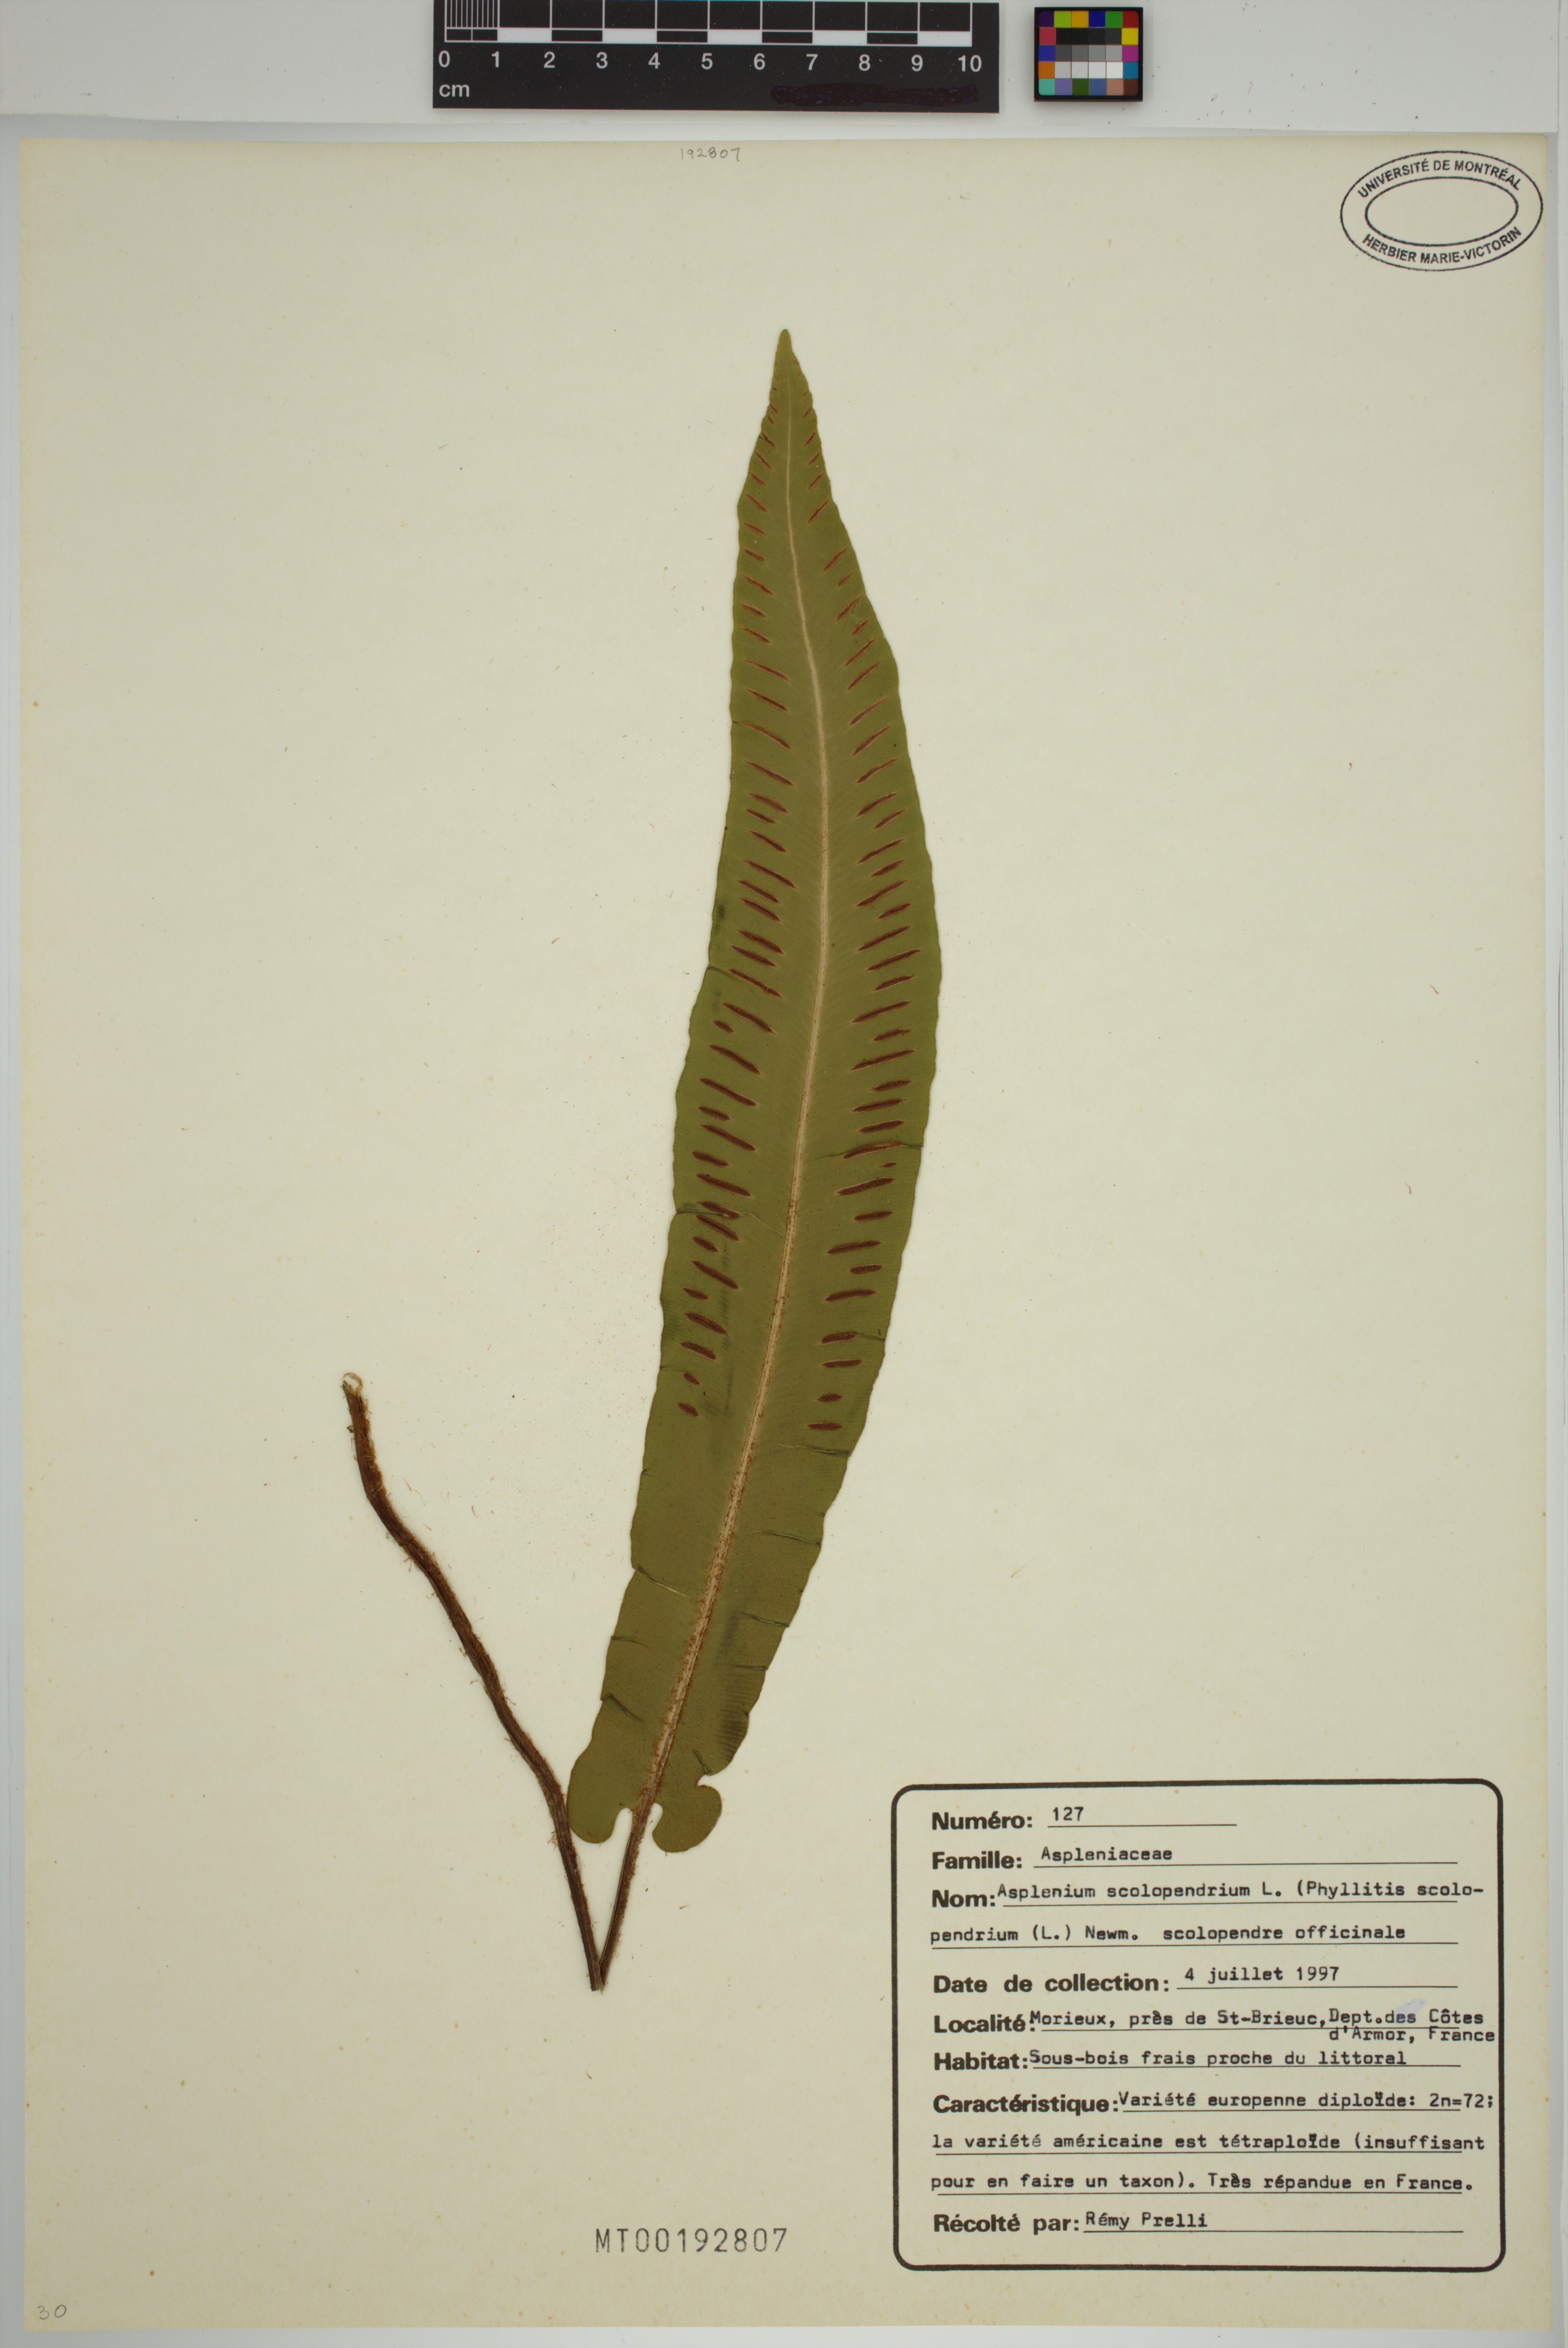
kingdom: Plantae
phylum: Tracheophyta
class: Polypodiopsida
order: Polypodiales
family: Aspleniaceae
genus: Asplenium
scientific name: Asplenium scolopendrium
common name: Hart's-tongue fern
